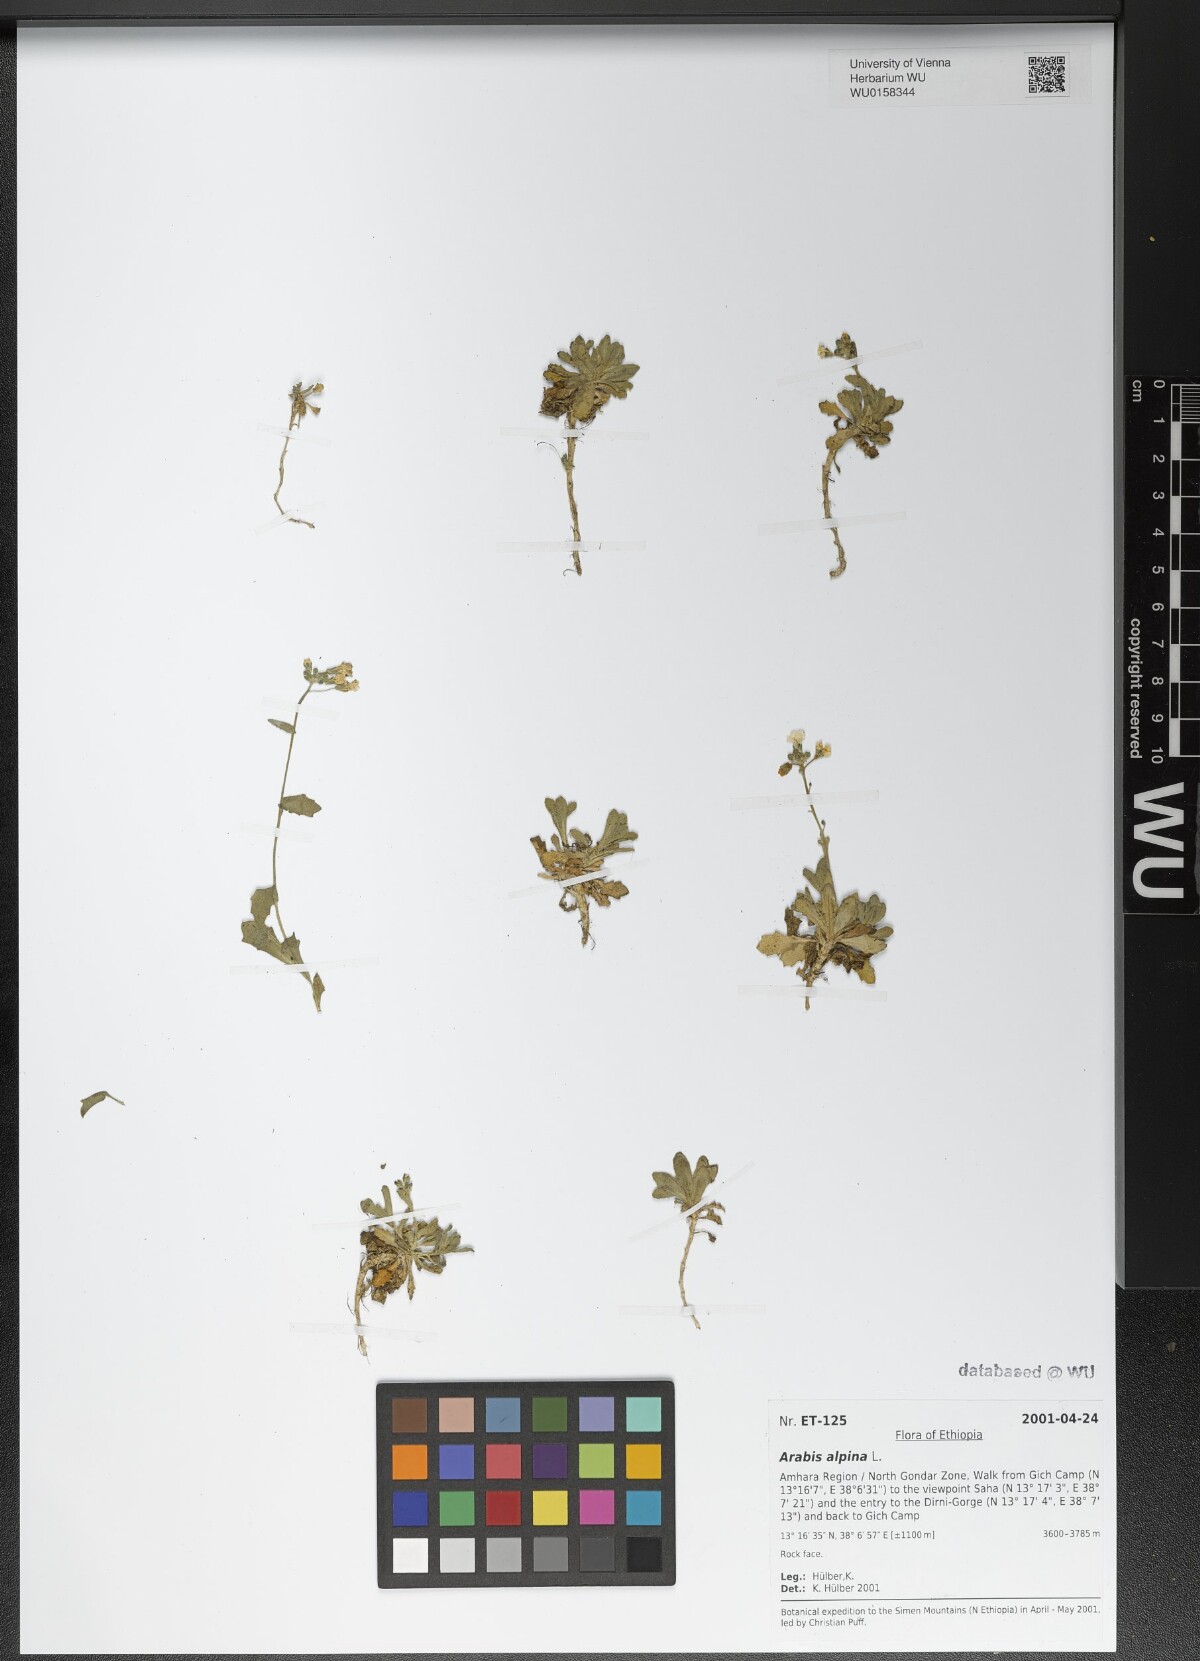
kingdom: Plantae
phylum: Tracheophyta
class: Magnoliopsida
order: Brassicales
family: Brassicaceae
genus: Arabis
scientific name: Arabis alpina
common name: Alpine rock-cress
